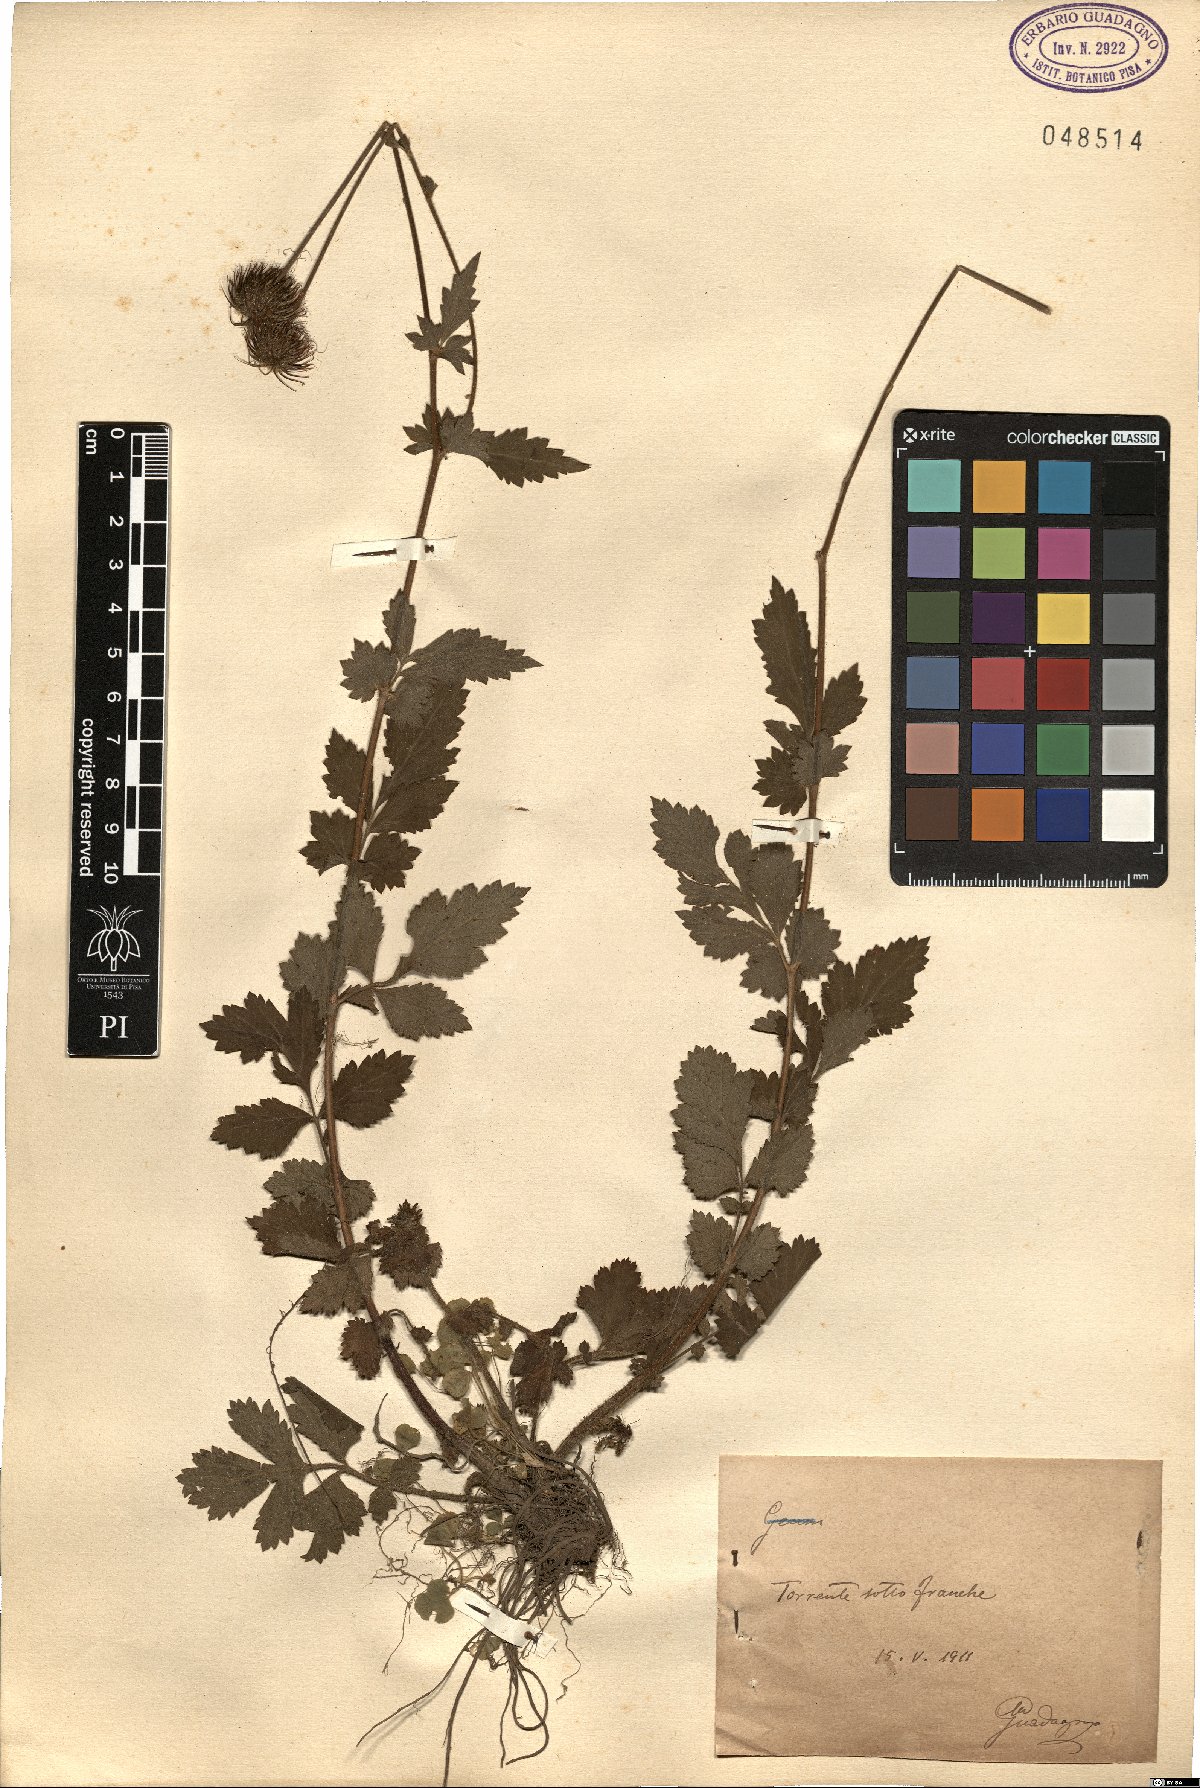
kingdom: Plantae
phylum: Tracheophyta
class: Magnoliopsida
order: Rosales
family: Rosaceae
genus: Geum
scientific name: Geum
